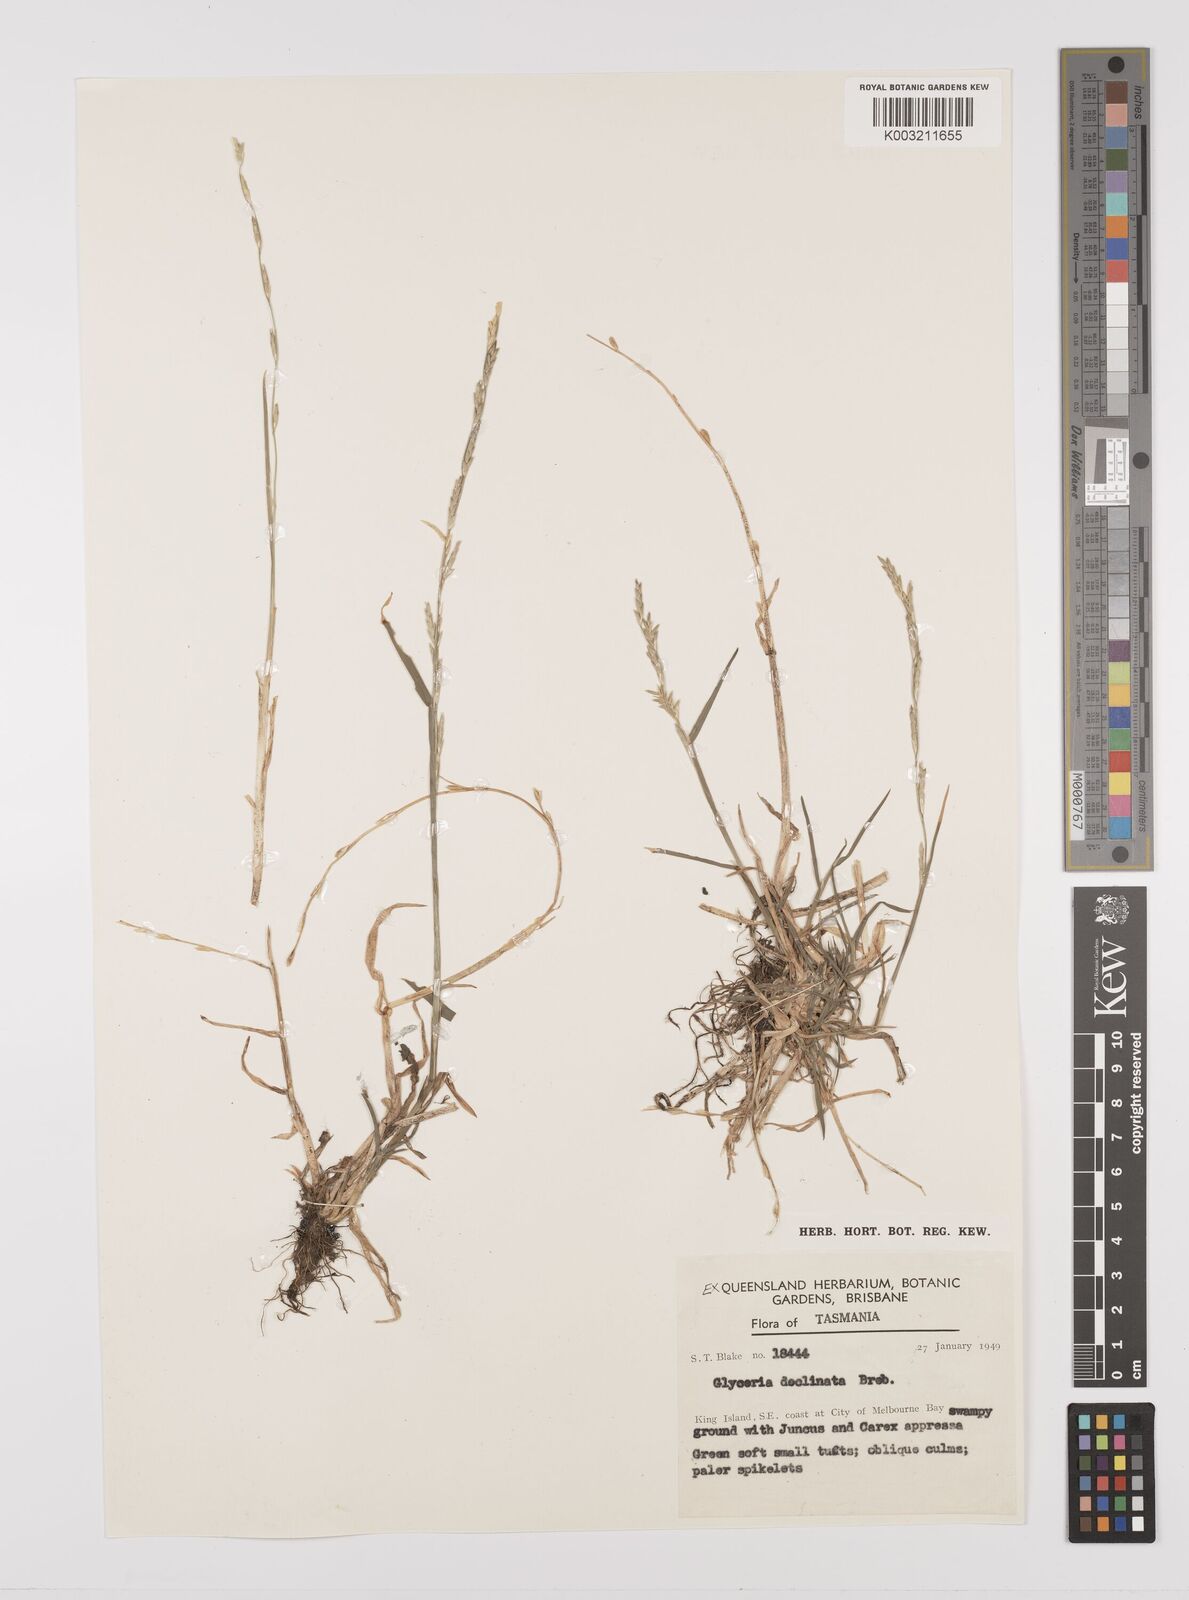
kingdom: Plantae
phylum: Tracheophyta
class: Liliopsida
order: Poales
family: Poaceae
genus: Glyceria
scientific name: Glyceria declinata
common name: Small sweet-grass
